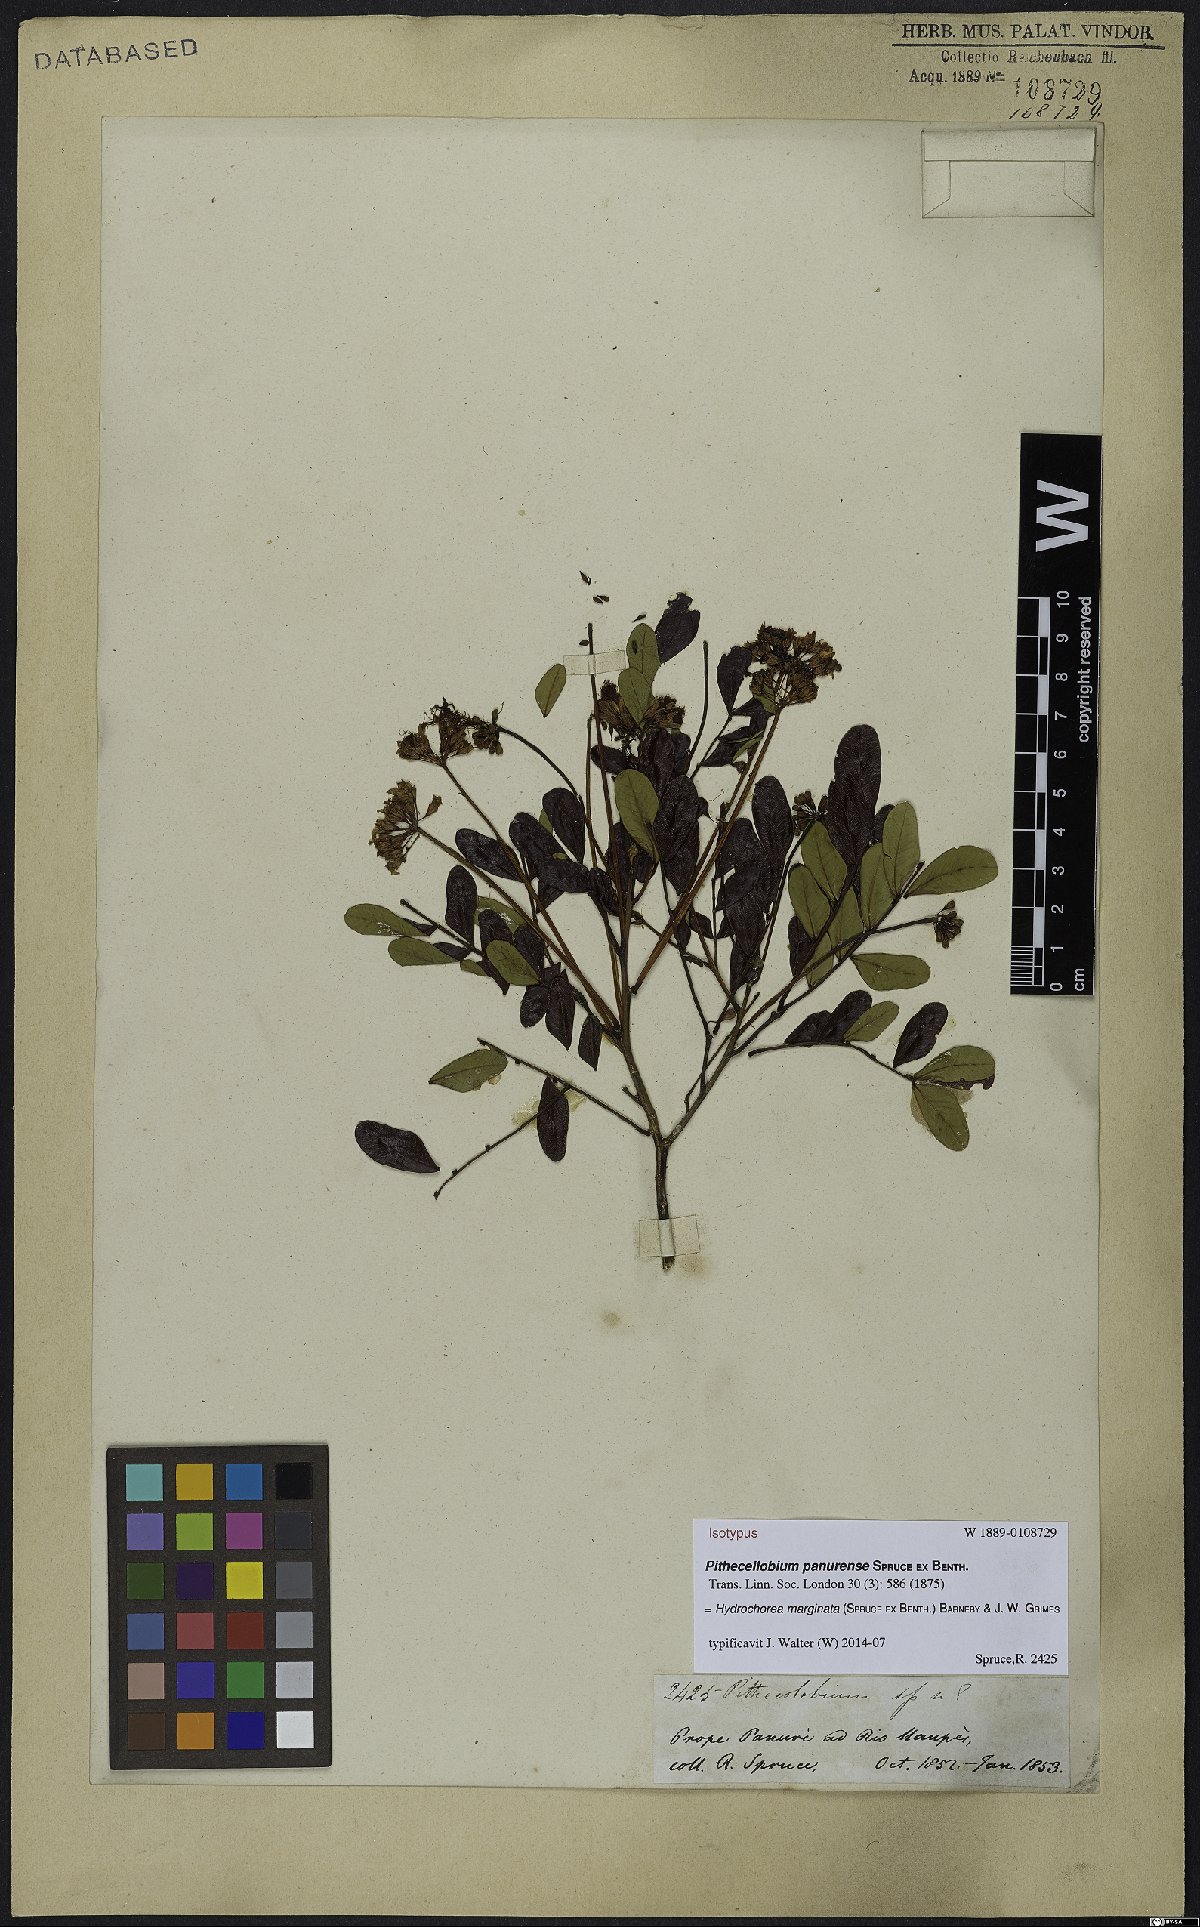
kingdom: Plantae
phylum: Tracheophyta
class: Magnoliopsida
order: Fabales
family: Fabaceae
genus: Hydrochorea
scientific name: Hydrochorea marginata
